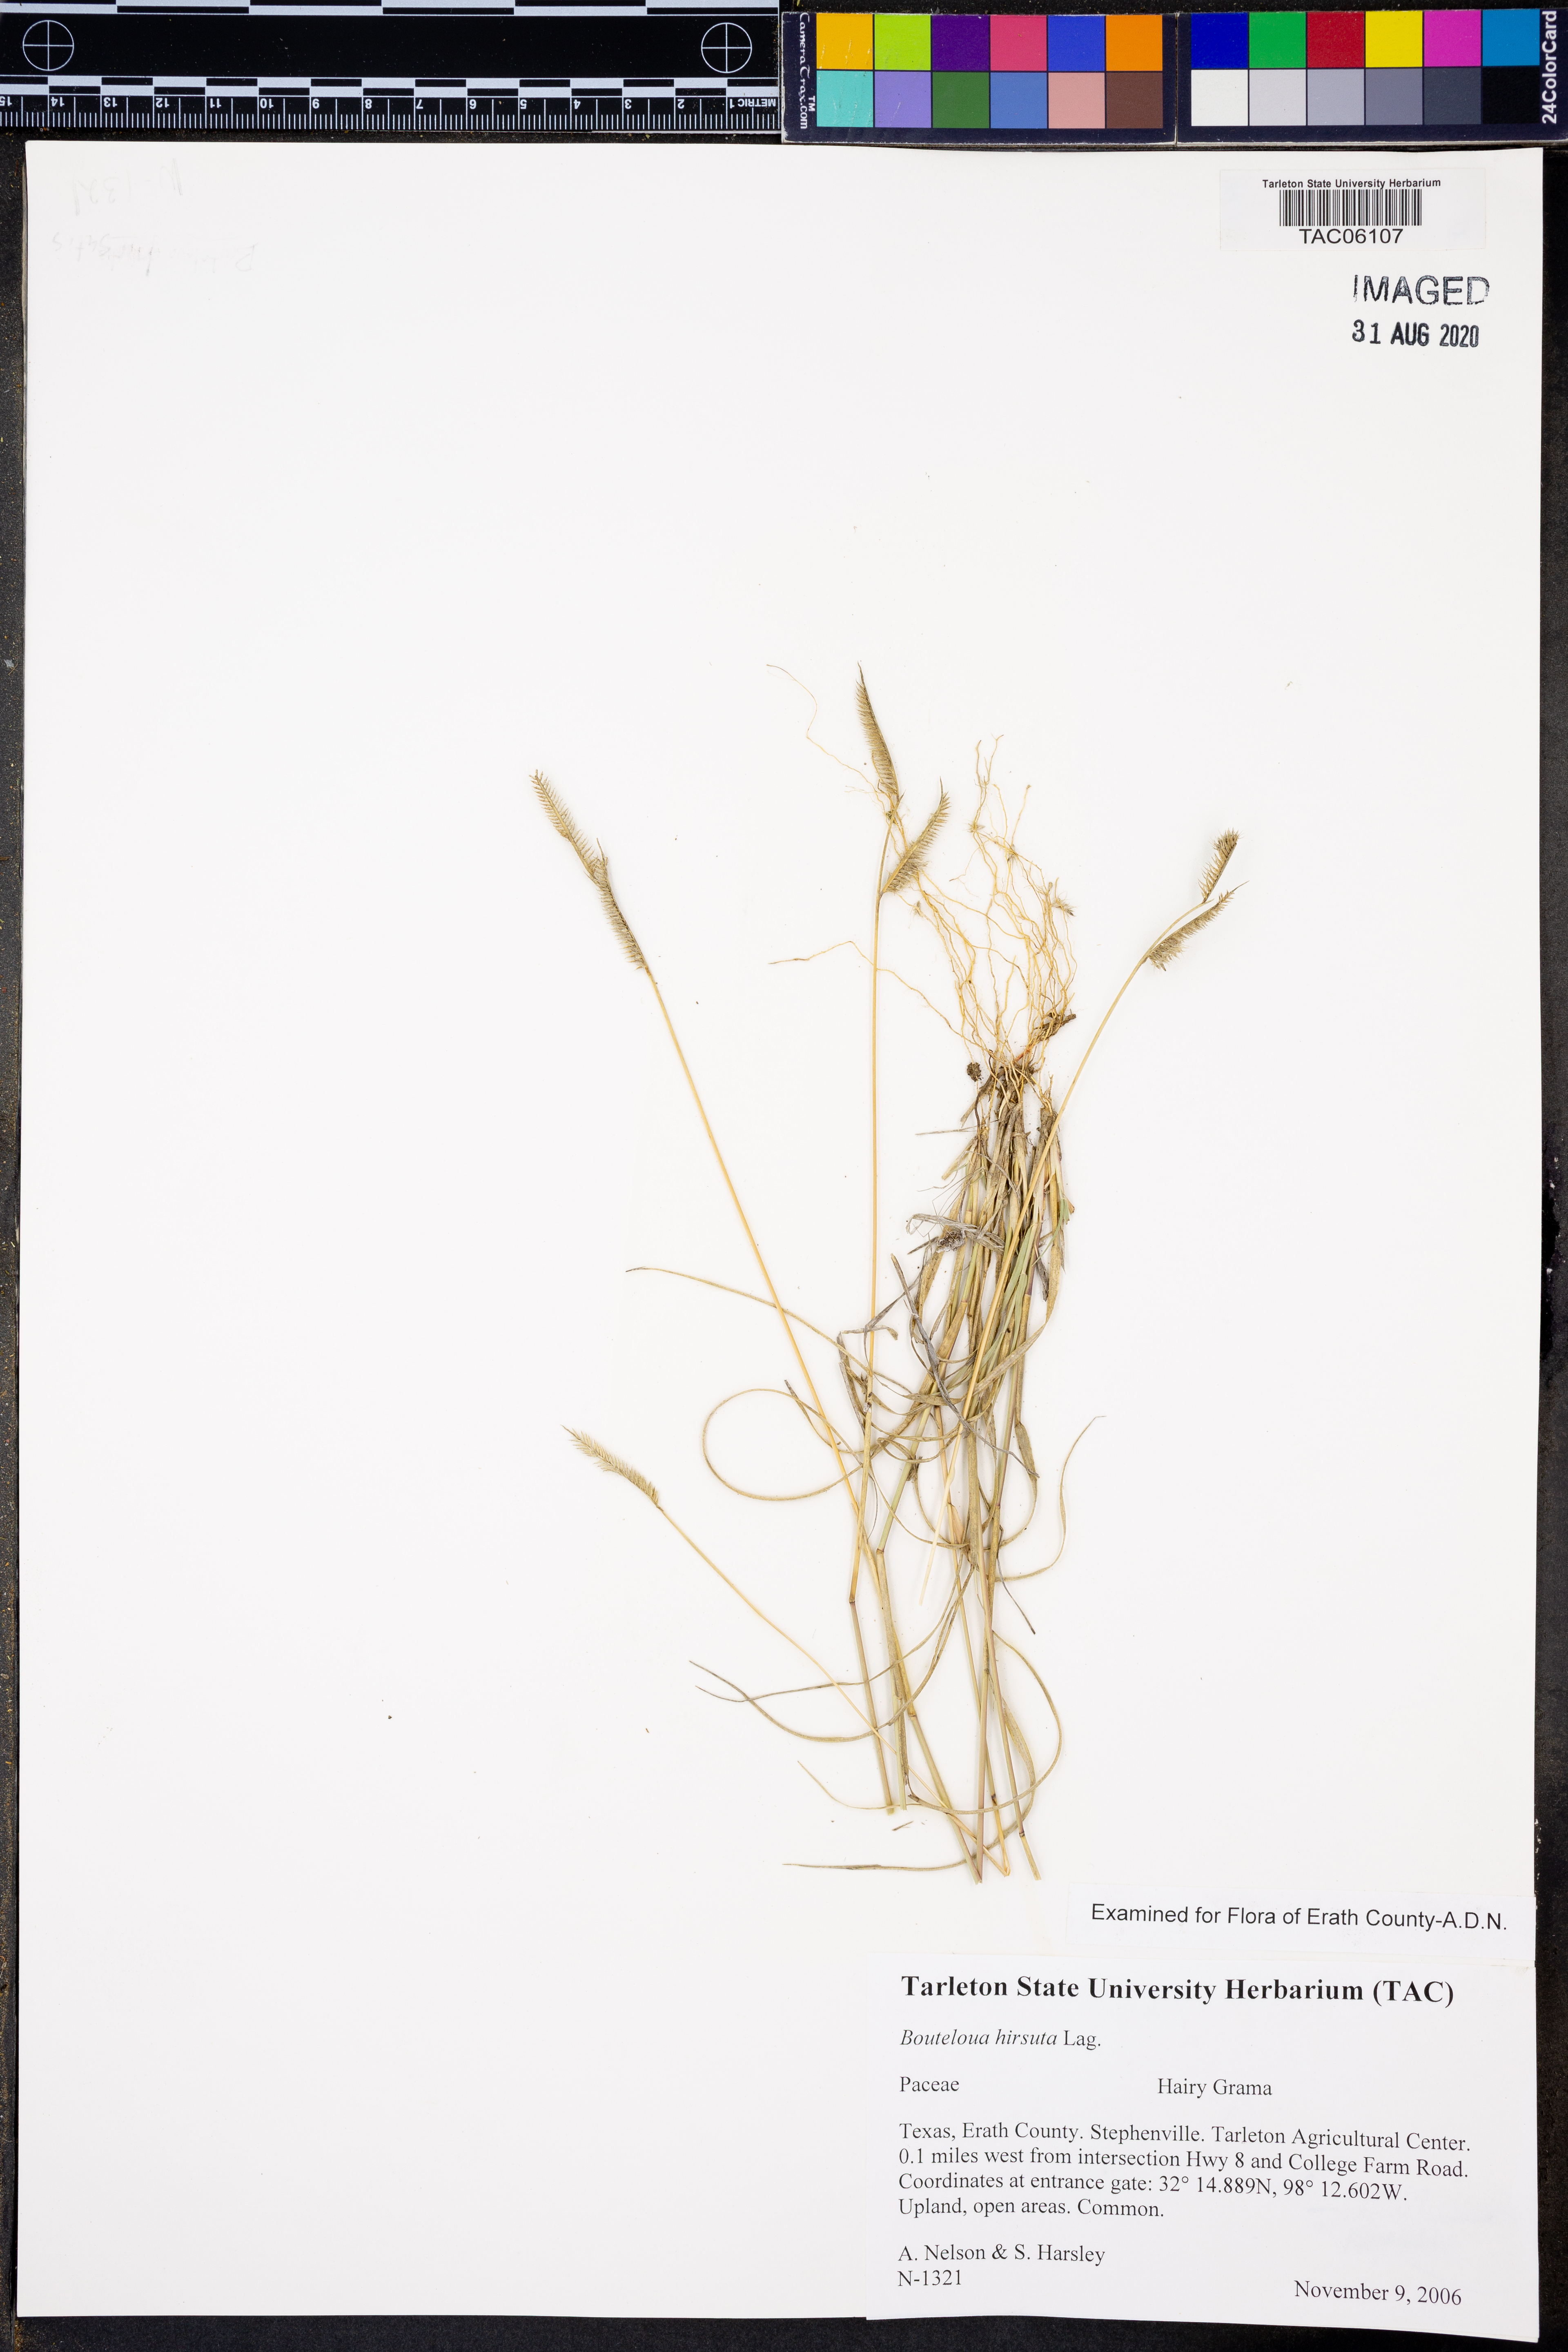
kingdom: Plantae
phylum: Tracheophyta
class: Liliopsida
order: Poales
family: Poaceae
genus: Bouteloua
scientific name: Bouteloua hirsuta
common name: Hairy grama
